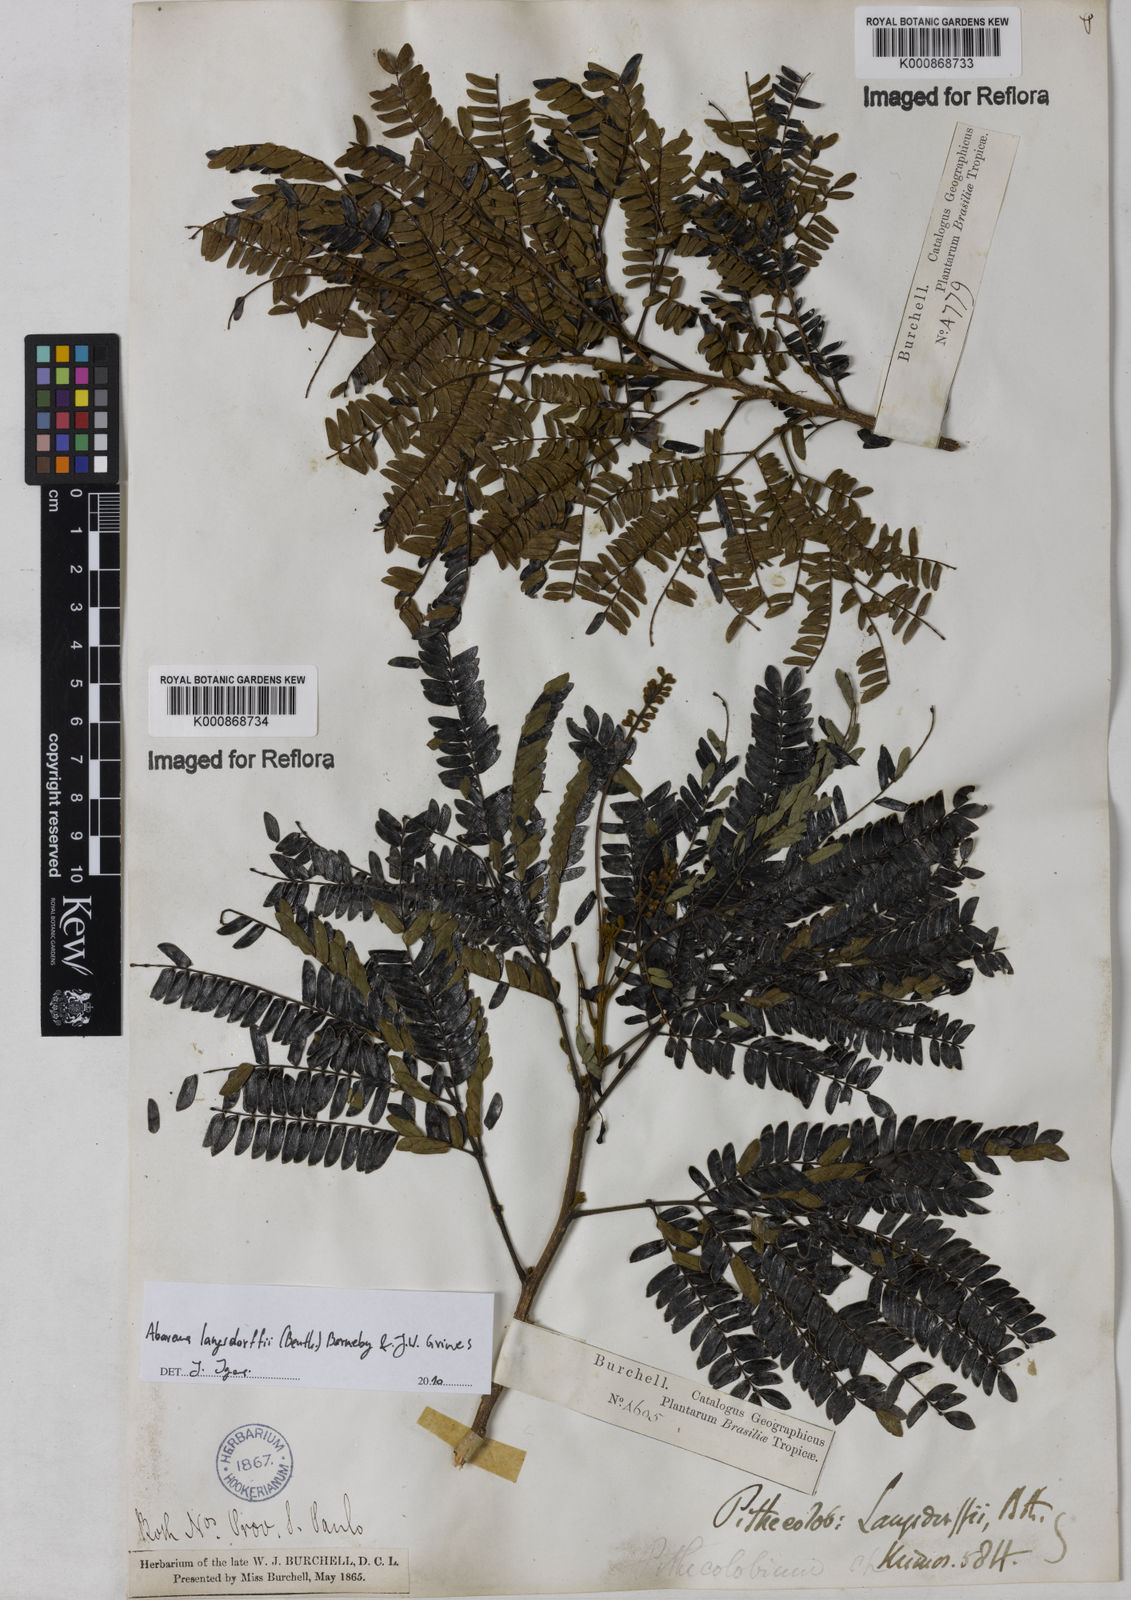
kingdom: Plantae
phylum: Tracheophyta
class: Magnoliopsida
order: Fabales
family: Fabaceae
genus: Jupunba
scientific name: Jupunba langsdorffii
